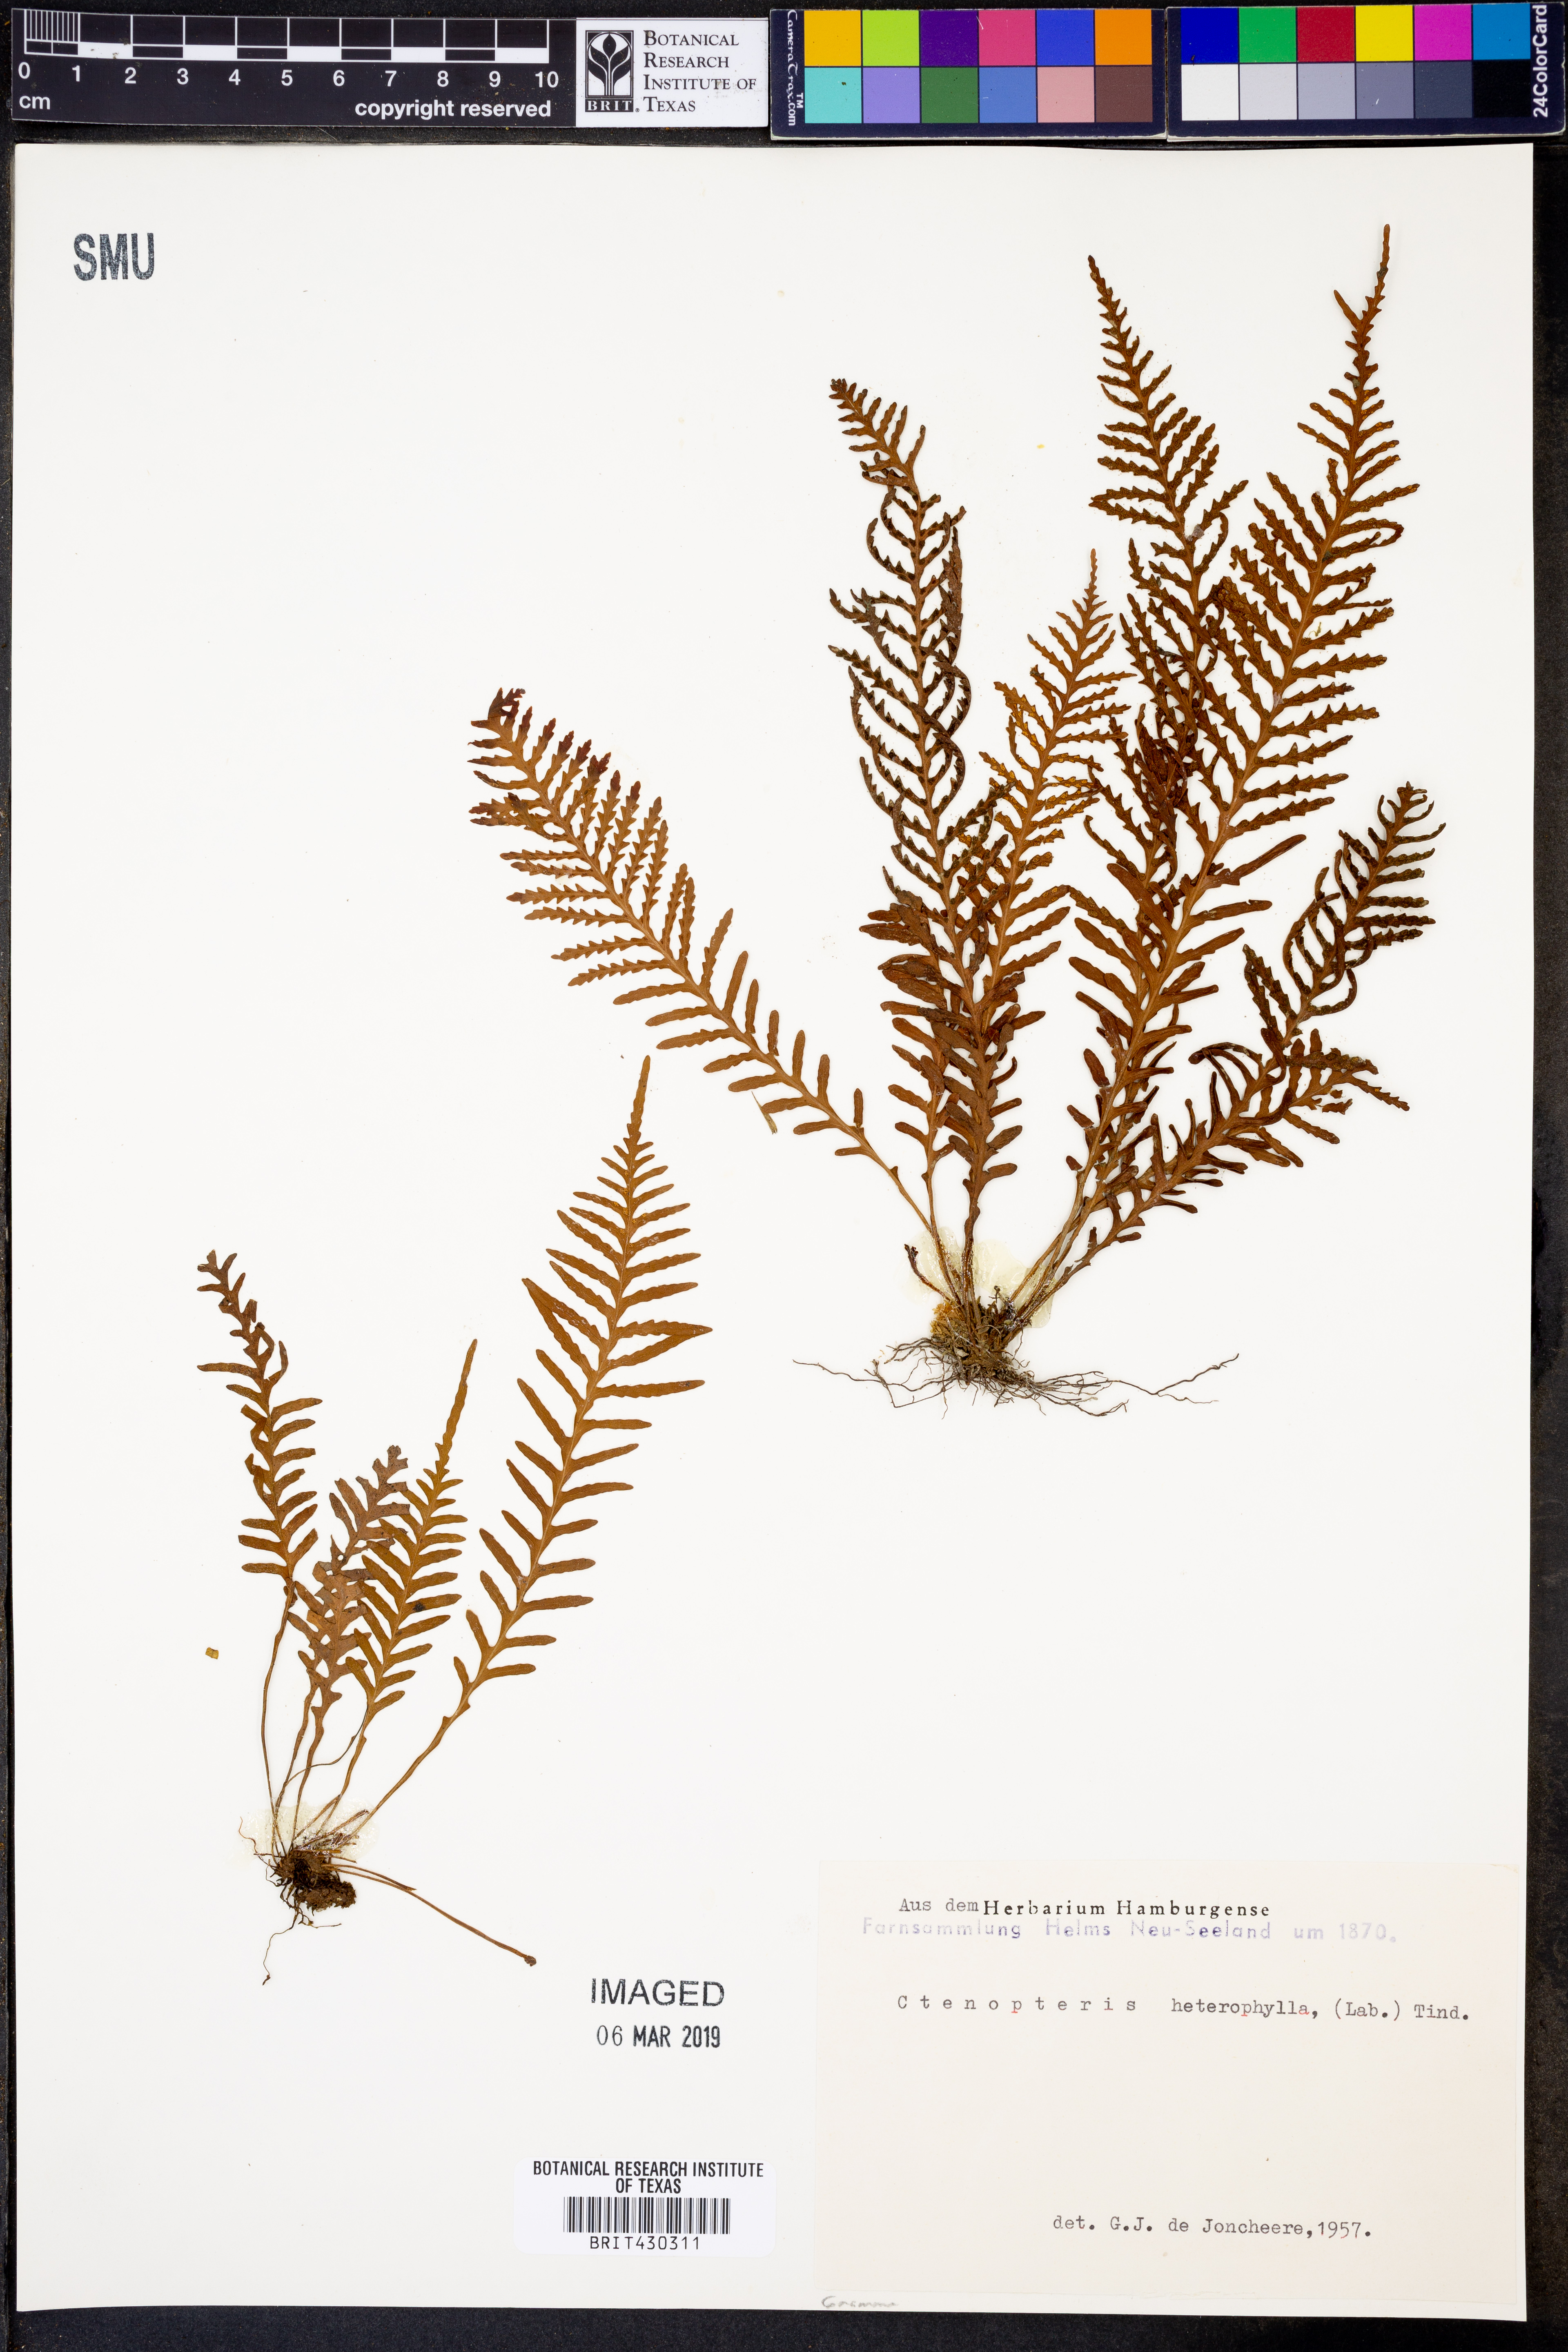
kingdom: Plantae
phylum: Tracheophyta
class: Polypodiopsida
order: Polypodiales
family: Polypodiaceae
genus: Notogrammitis
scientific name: Notogrammitis heterophylla
